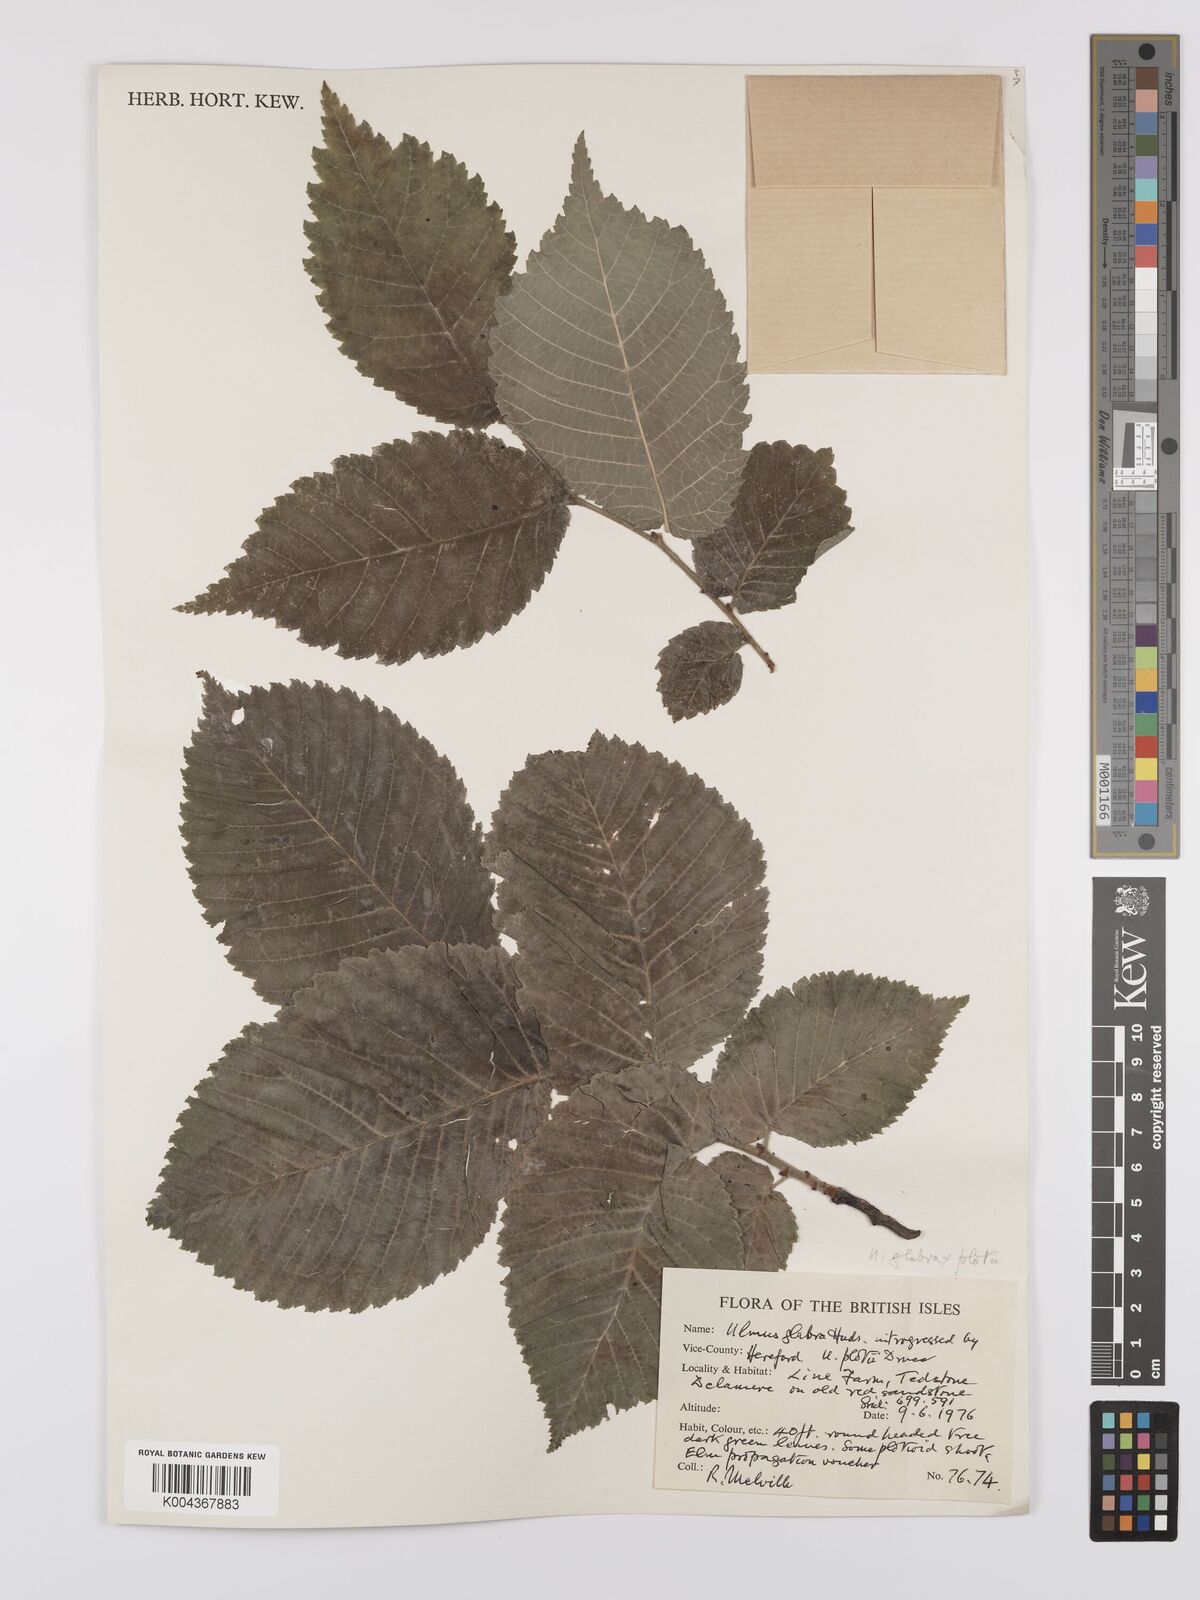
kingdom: Plantae
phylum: Tracheophyta
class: Magnoliopsida
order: Rosales
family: Ulmaceae
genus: Ulmus
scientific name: Ulmus glabra
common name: Wych elm
